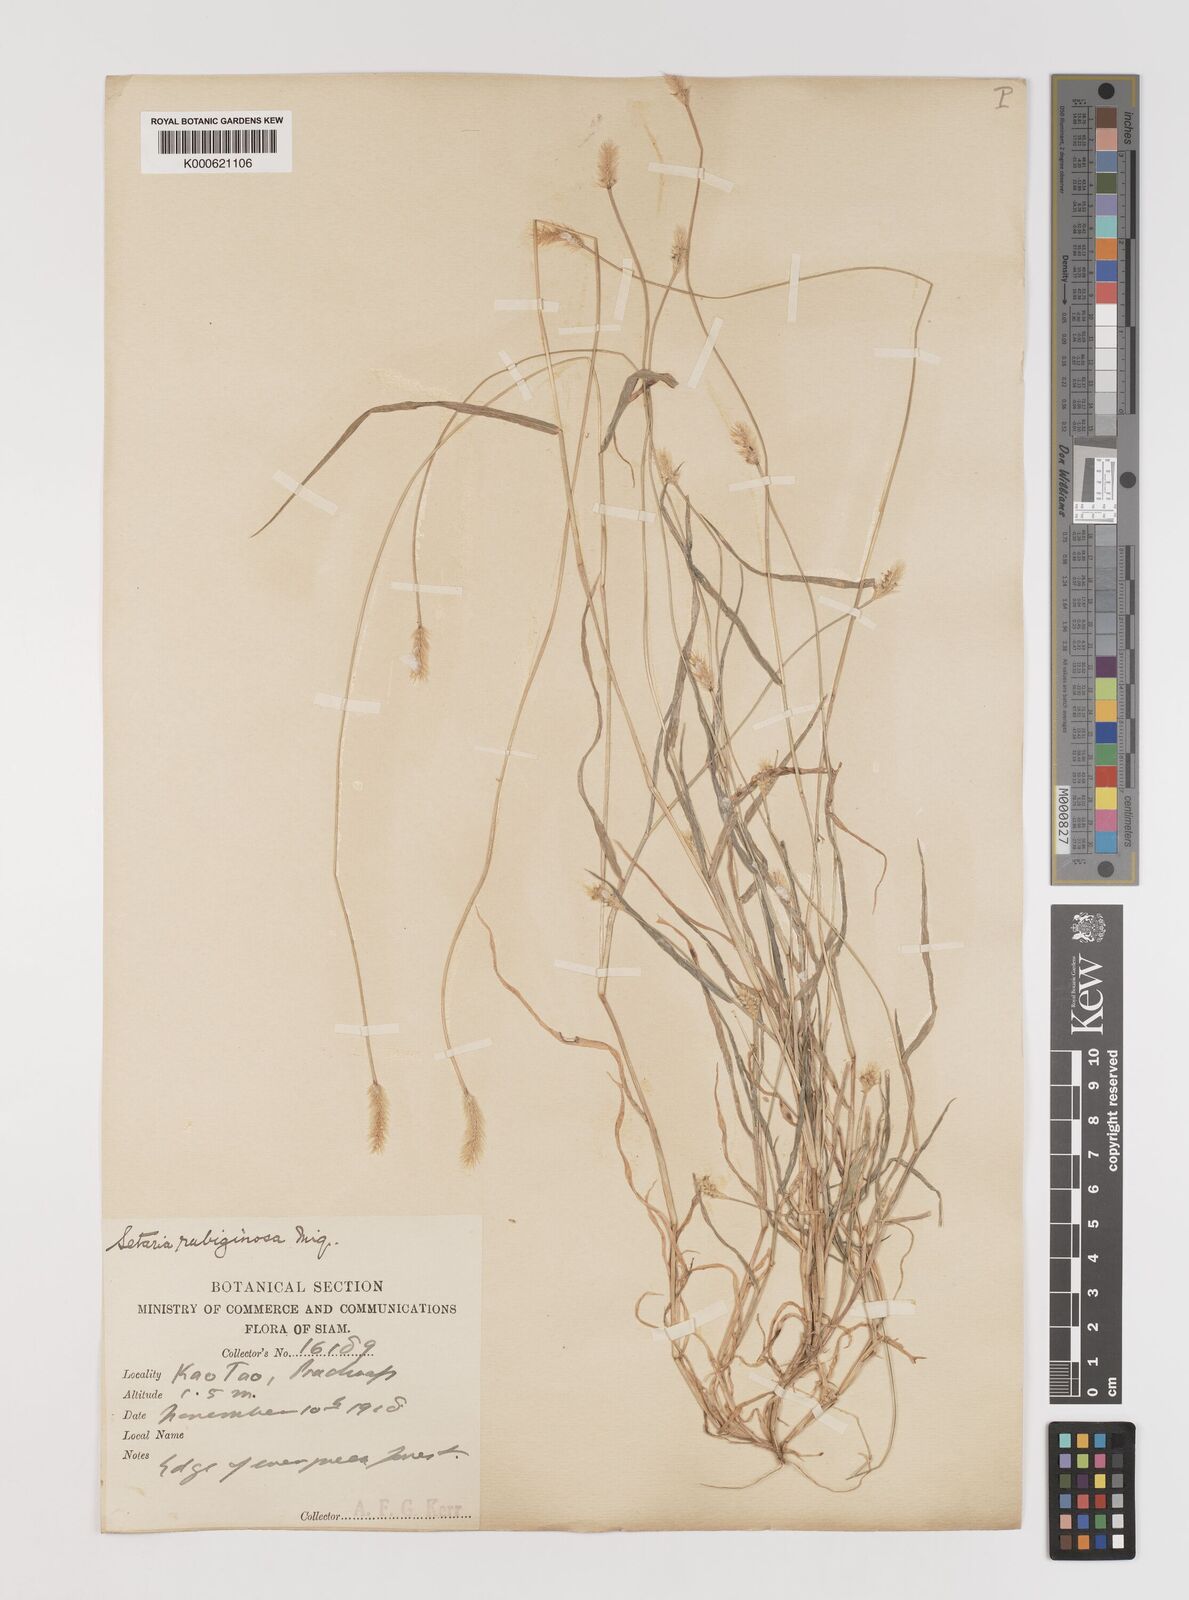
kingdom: Plantae
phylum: Tracheophyta
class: Liliopsida
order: Poales
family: Poaceae
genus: Setaria
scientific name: Setaria pumila
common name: Yellow bristle-grass
